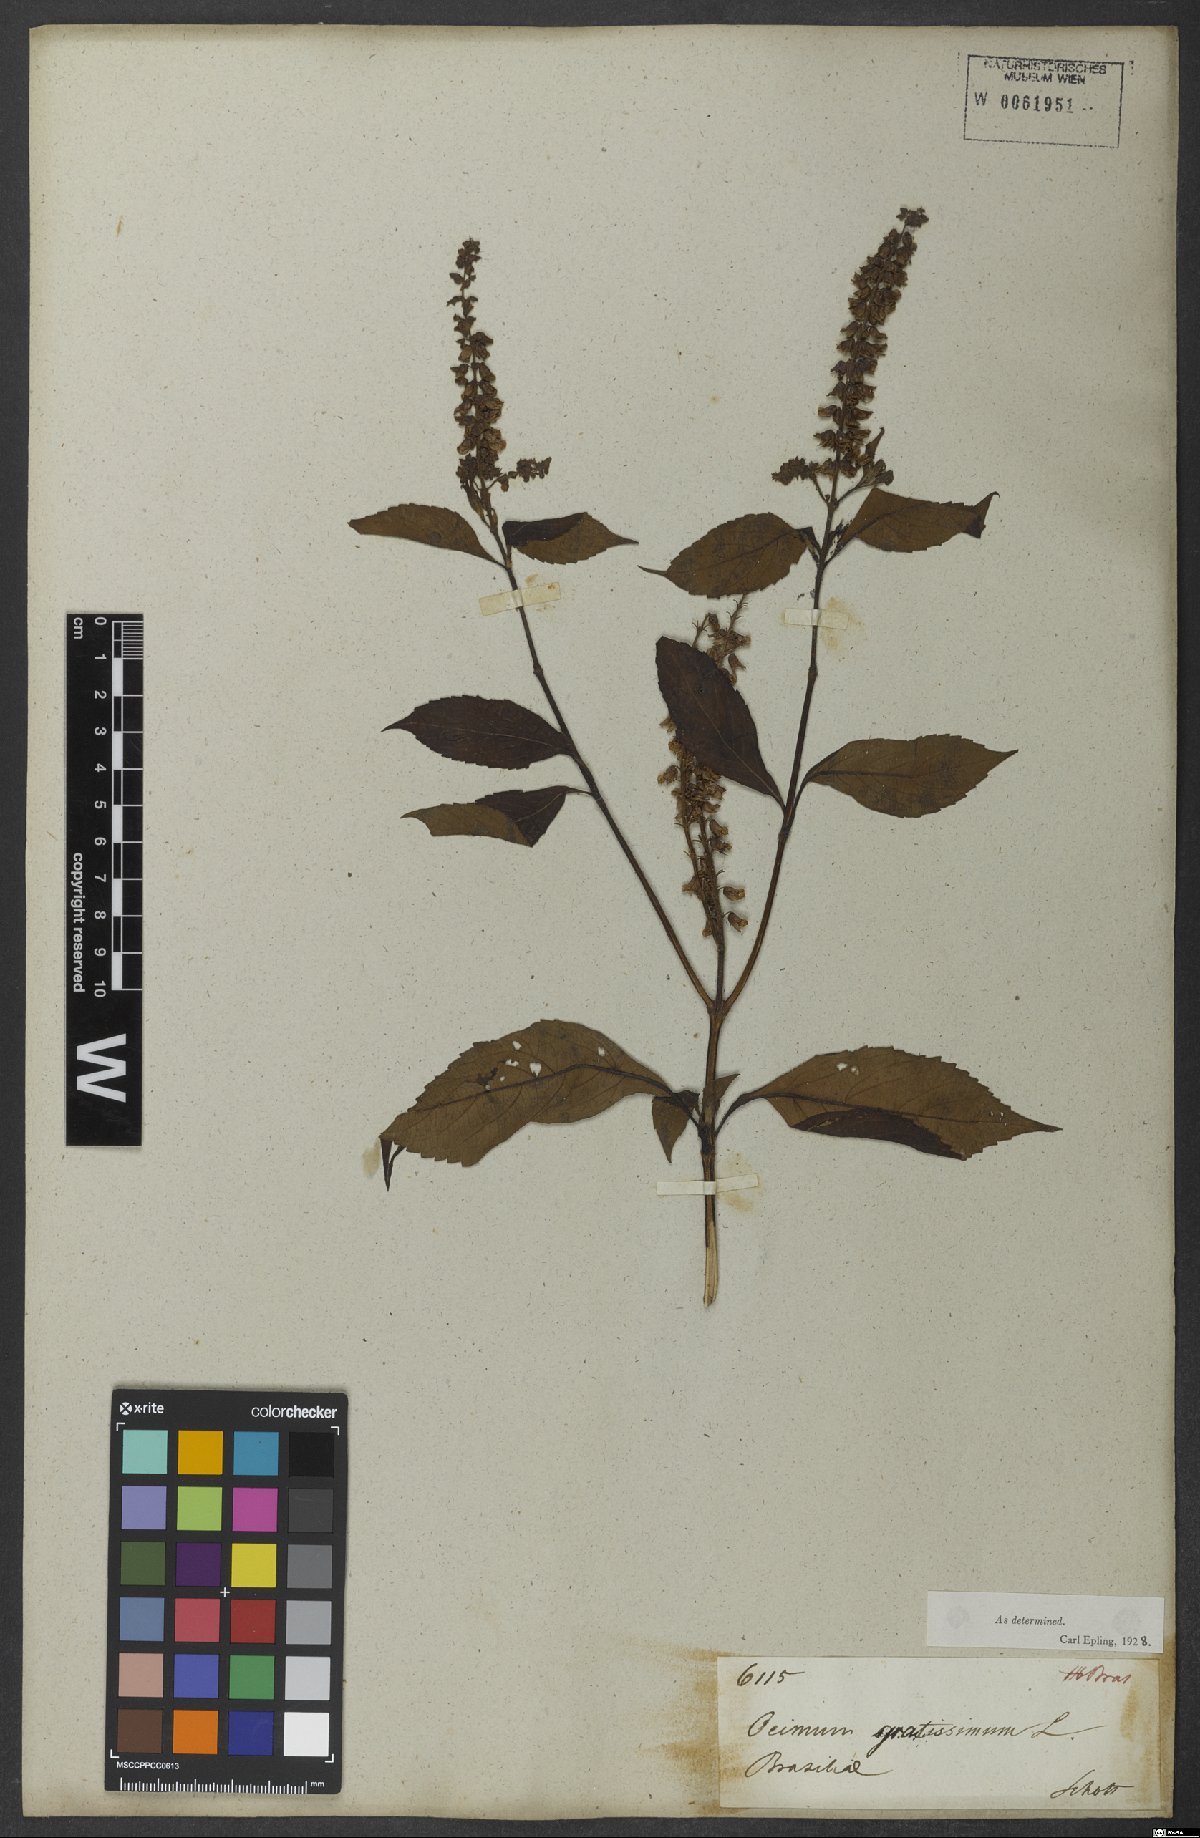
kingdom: Plantae
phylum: Tracheophyta
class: Magnoliopsida
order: Lamiales
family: Lamiaceae
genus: Ocimum
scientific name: Ocimum gratissimum
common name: African basil
